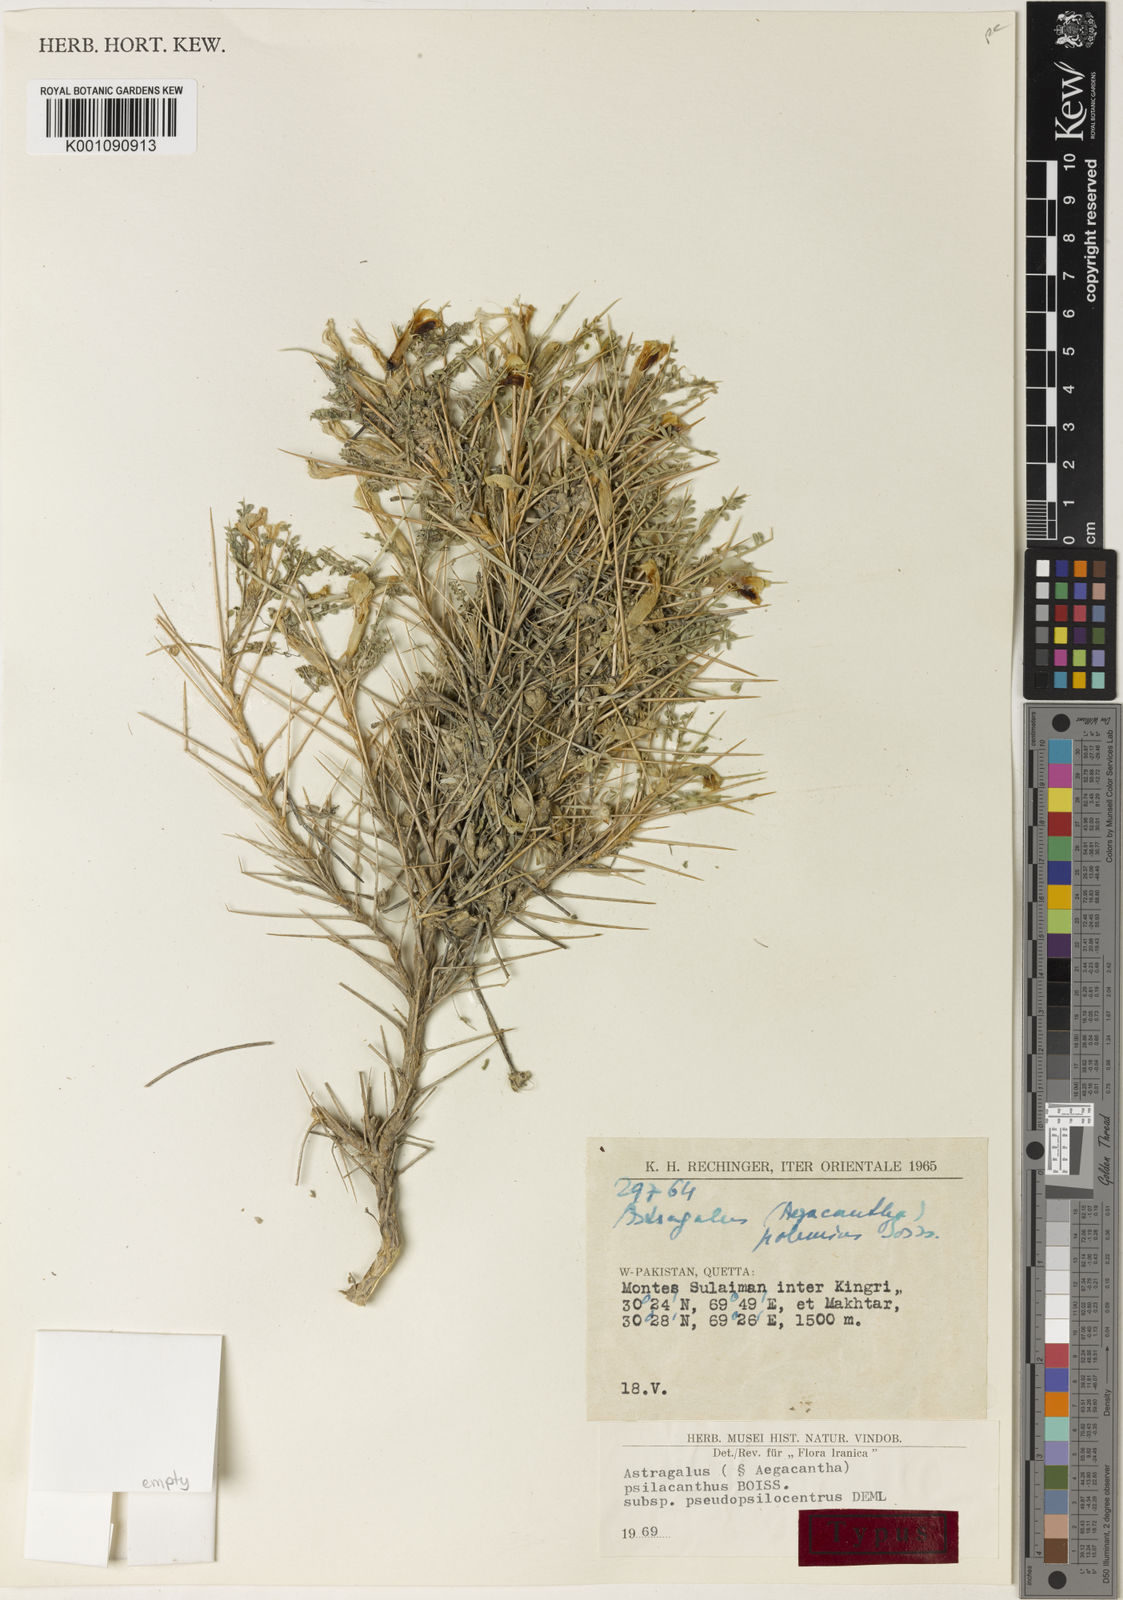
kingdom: Plantae
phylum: Tracheophyta
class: Magnoliopsida
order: Fabales
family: Fabaceae
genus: Astragalus
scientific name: Astragalus psilacanthus
